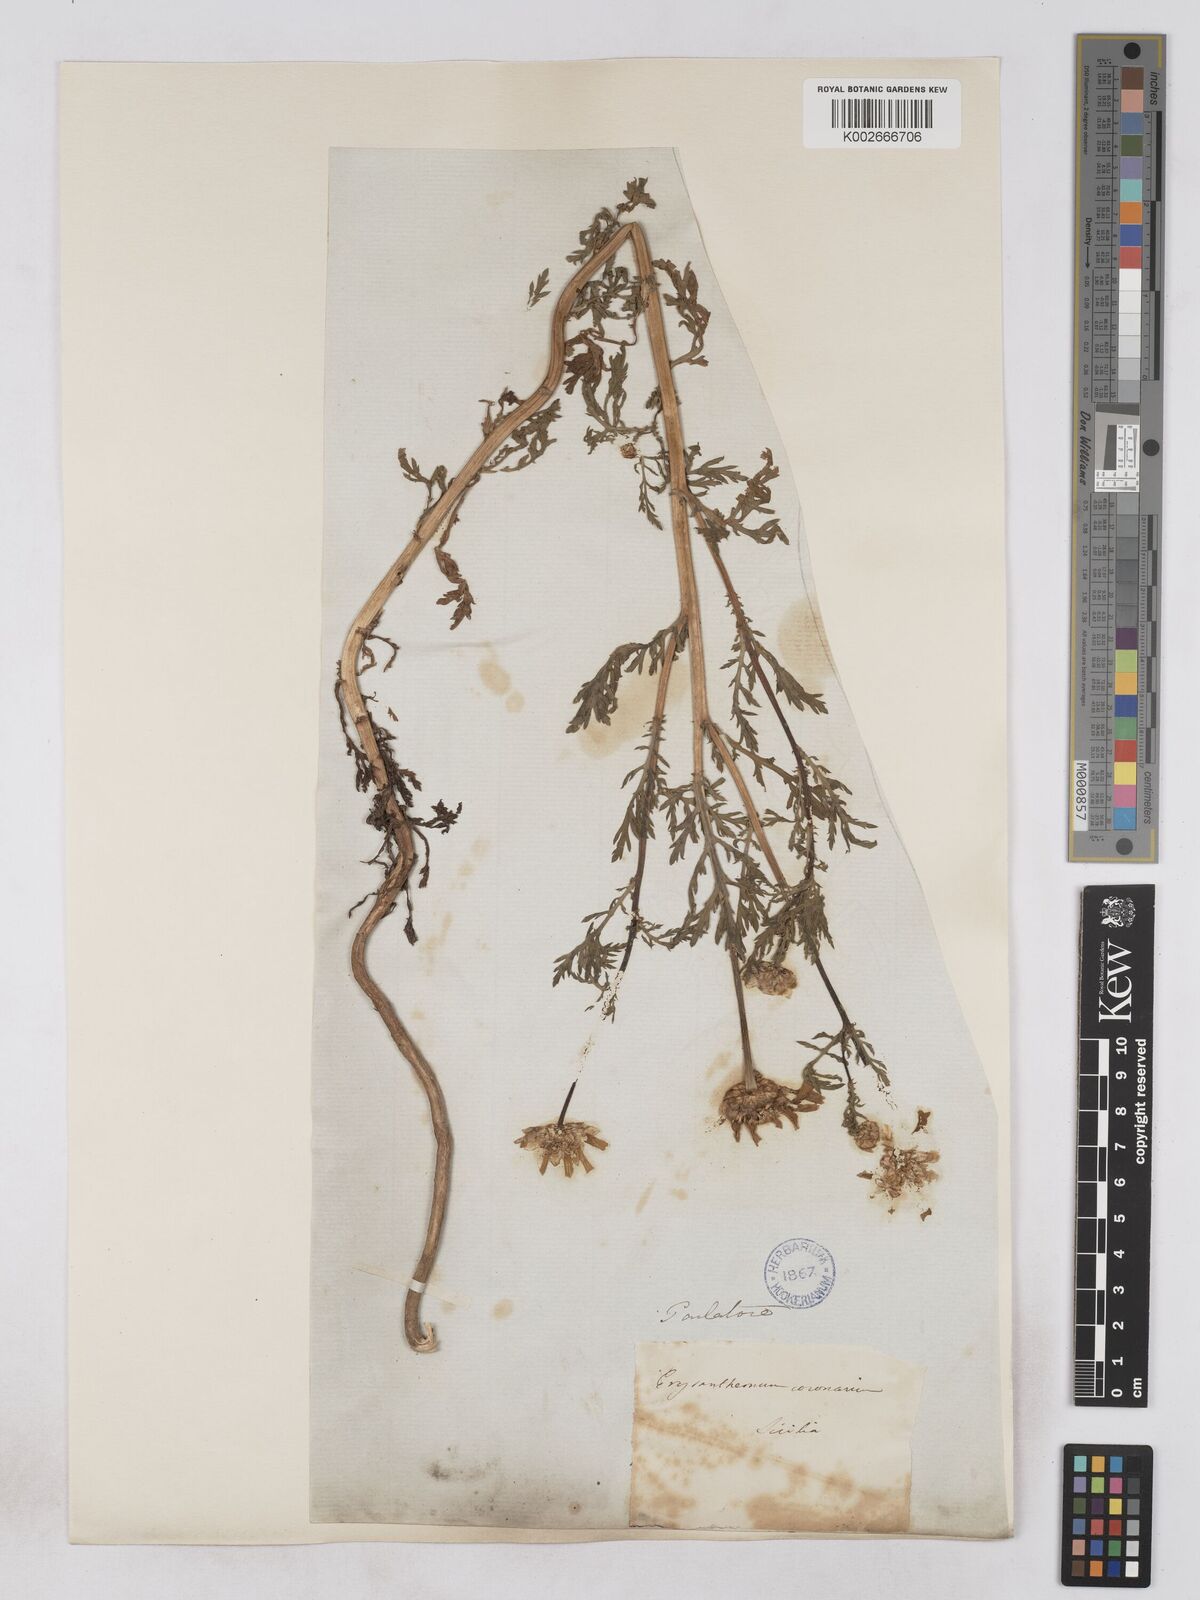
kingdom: Plantae
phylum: Tracheophyta
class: Magnoliopsida
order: Asterales
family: Asteraceae
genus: Glebionis
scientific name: Glebionis coronaria
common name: Crowndaisy
